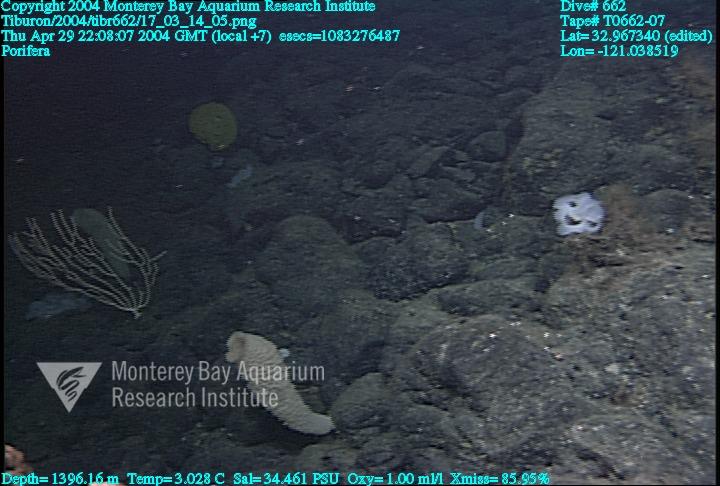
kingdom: Animalia
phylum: Porifera
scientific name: Porifera
